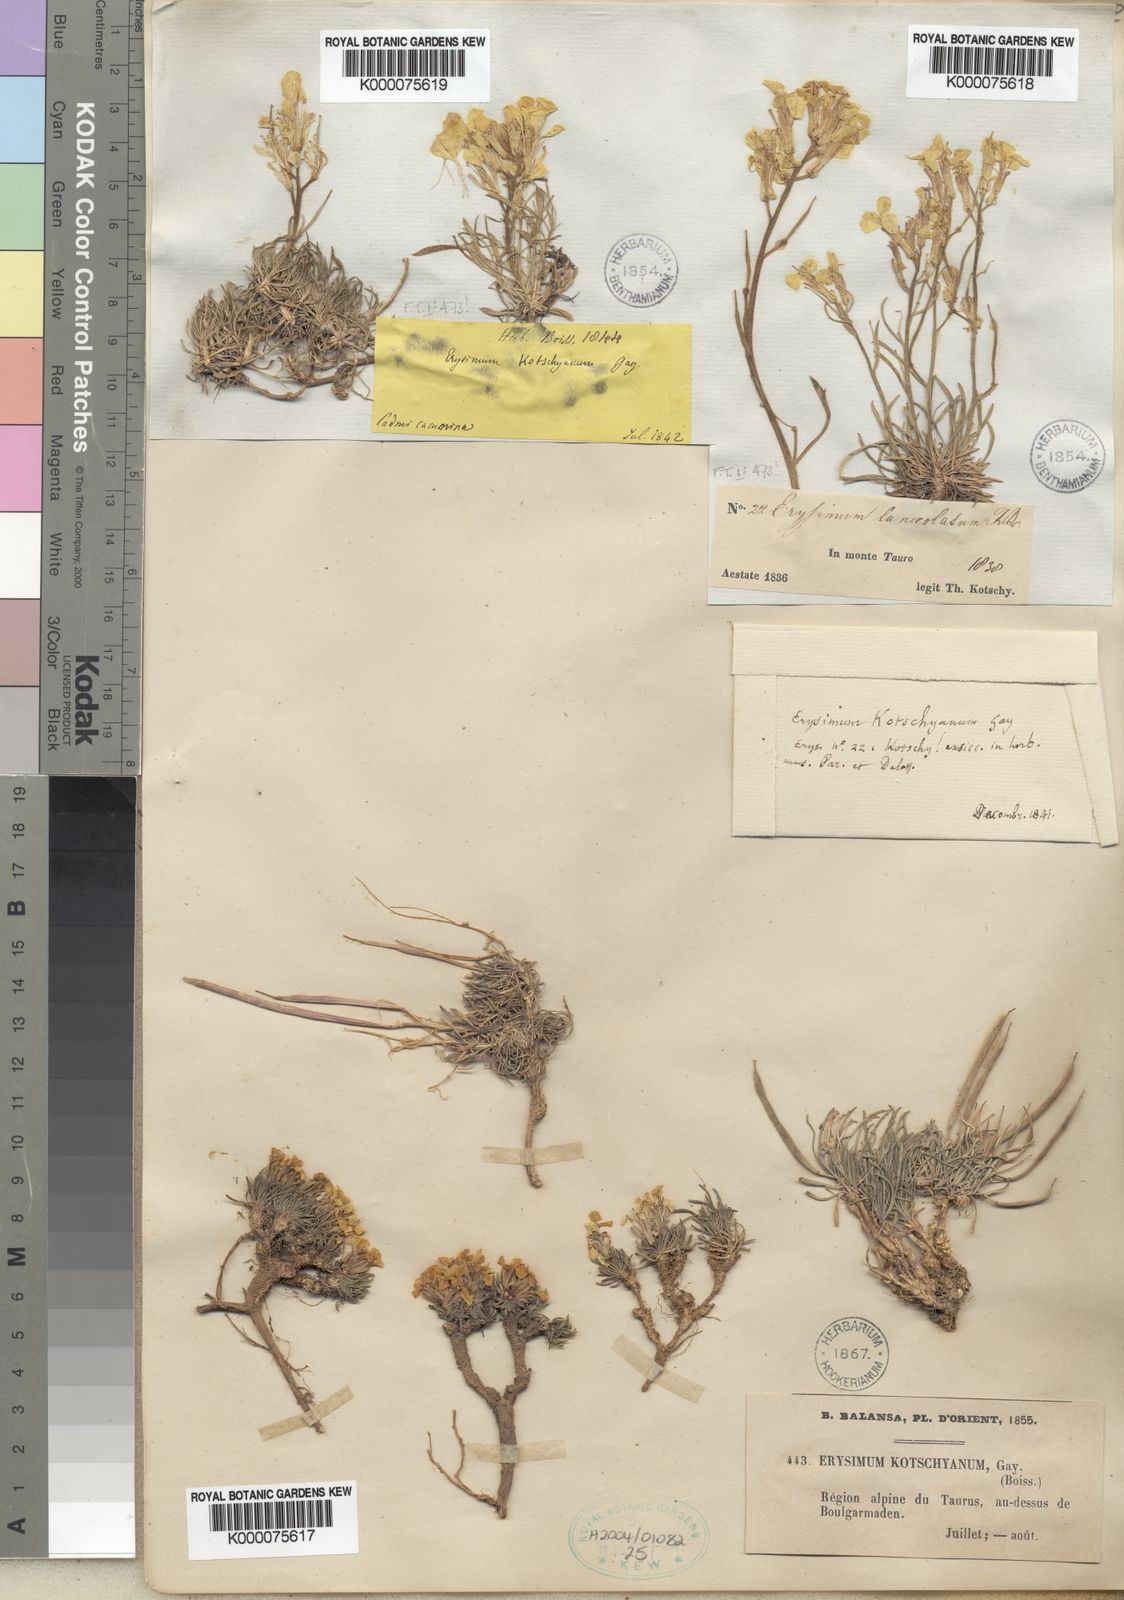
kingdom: Plantae
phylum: Tracheophyta
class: Magnoliopsida
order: Brassicales
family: Brassicaceae
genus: Erysimum
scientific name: Erysimum kotschyanum
